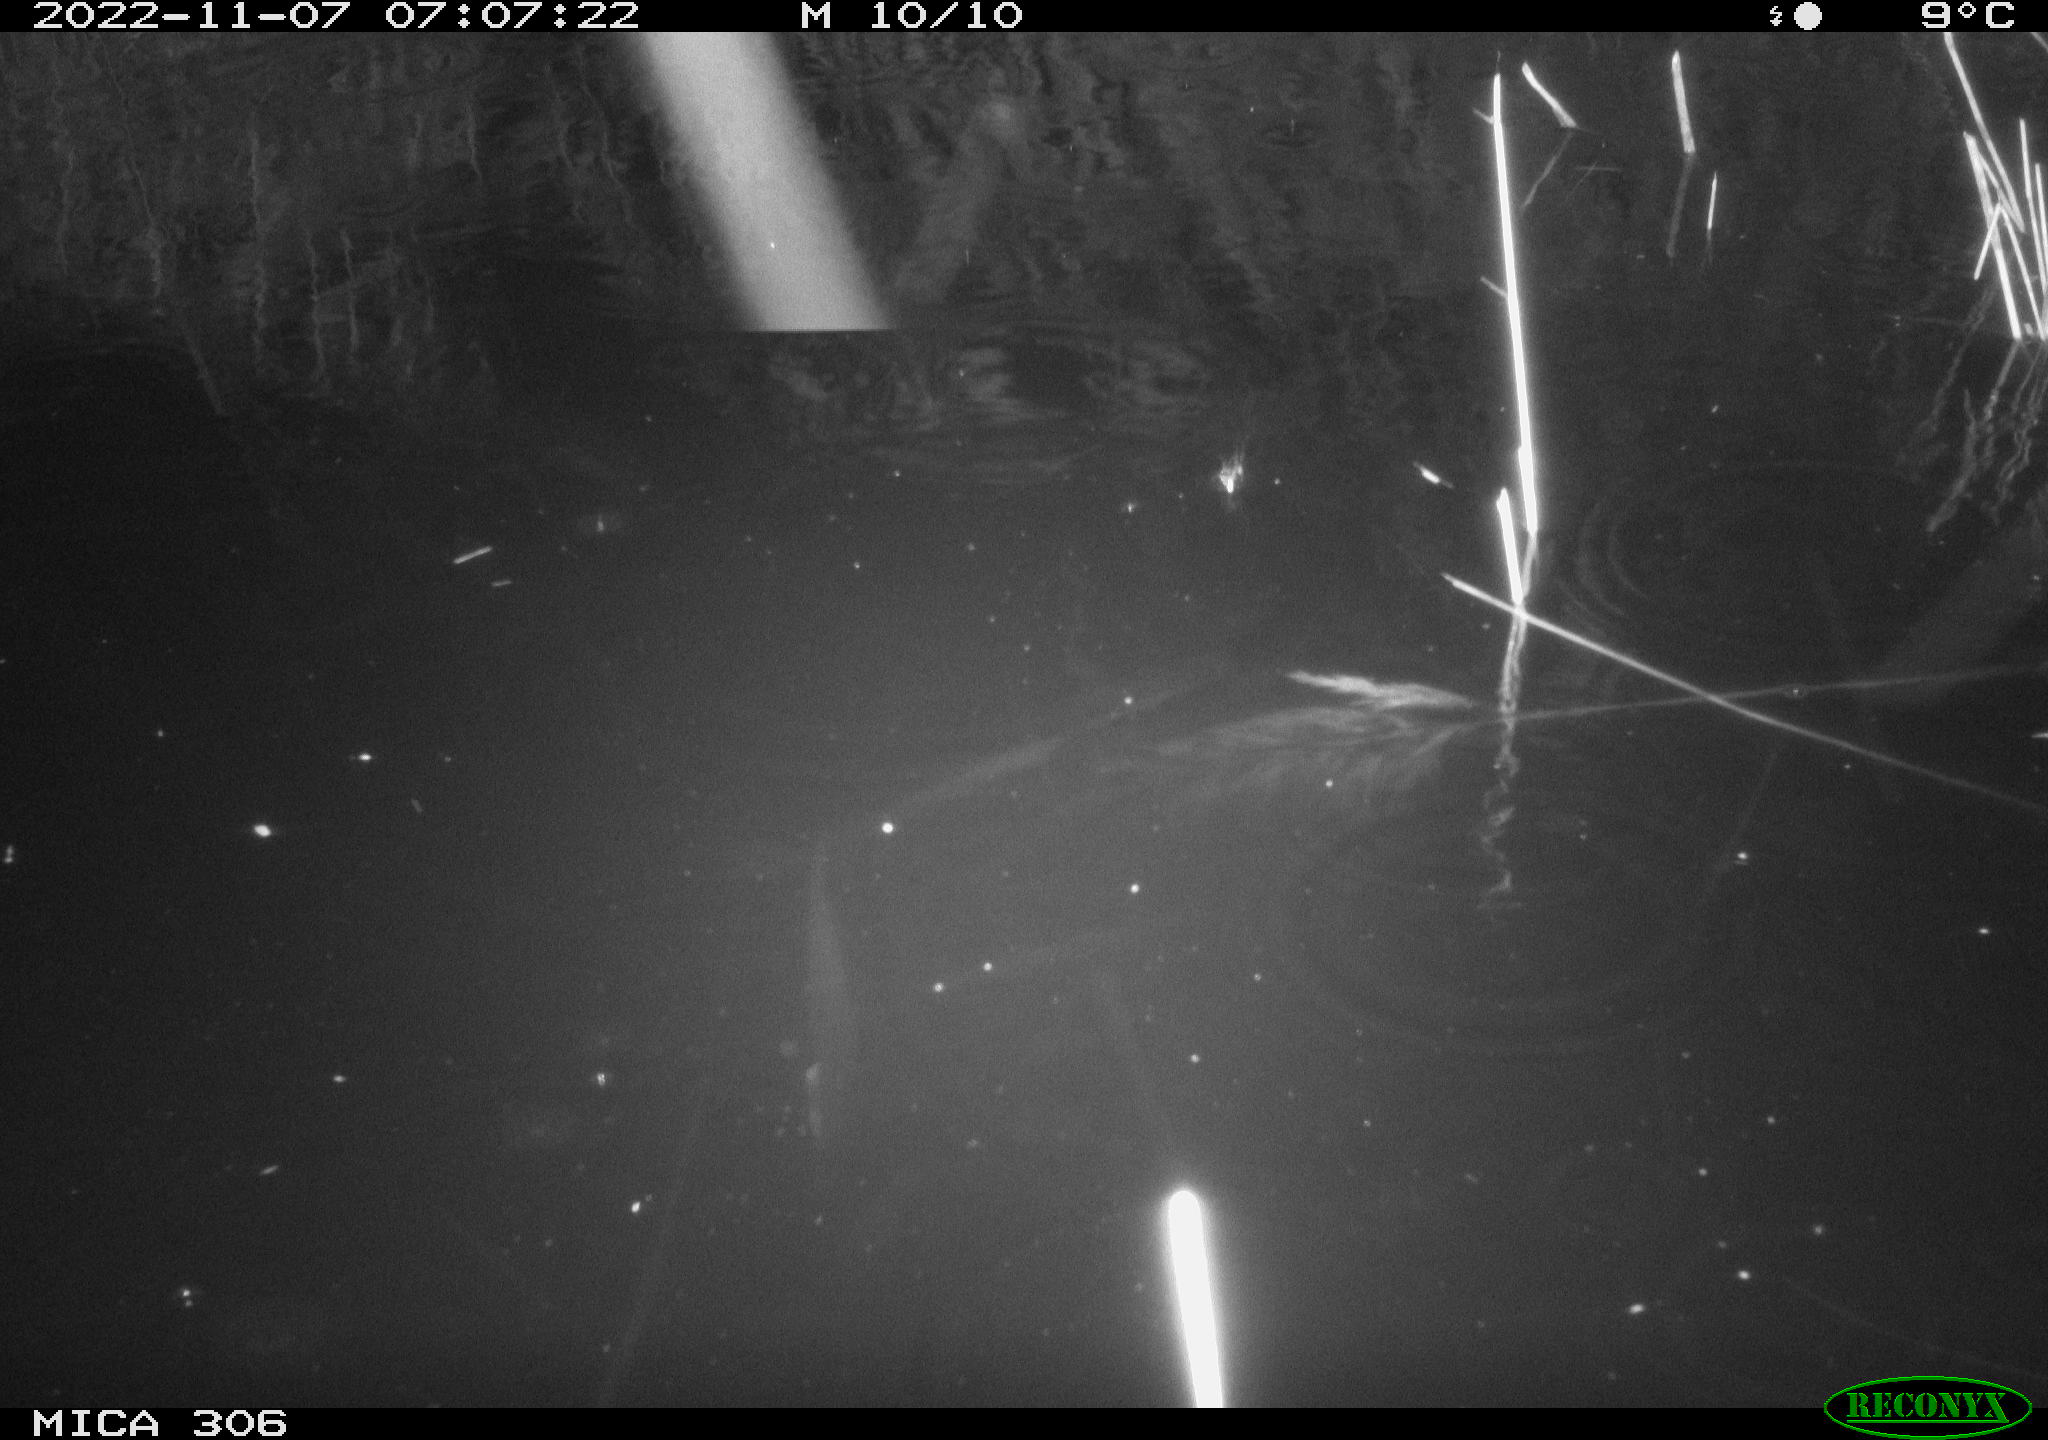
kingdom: Animalia
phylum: Chordata
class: Mammalia
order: Rodentia
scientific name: Rodentia
